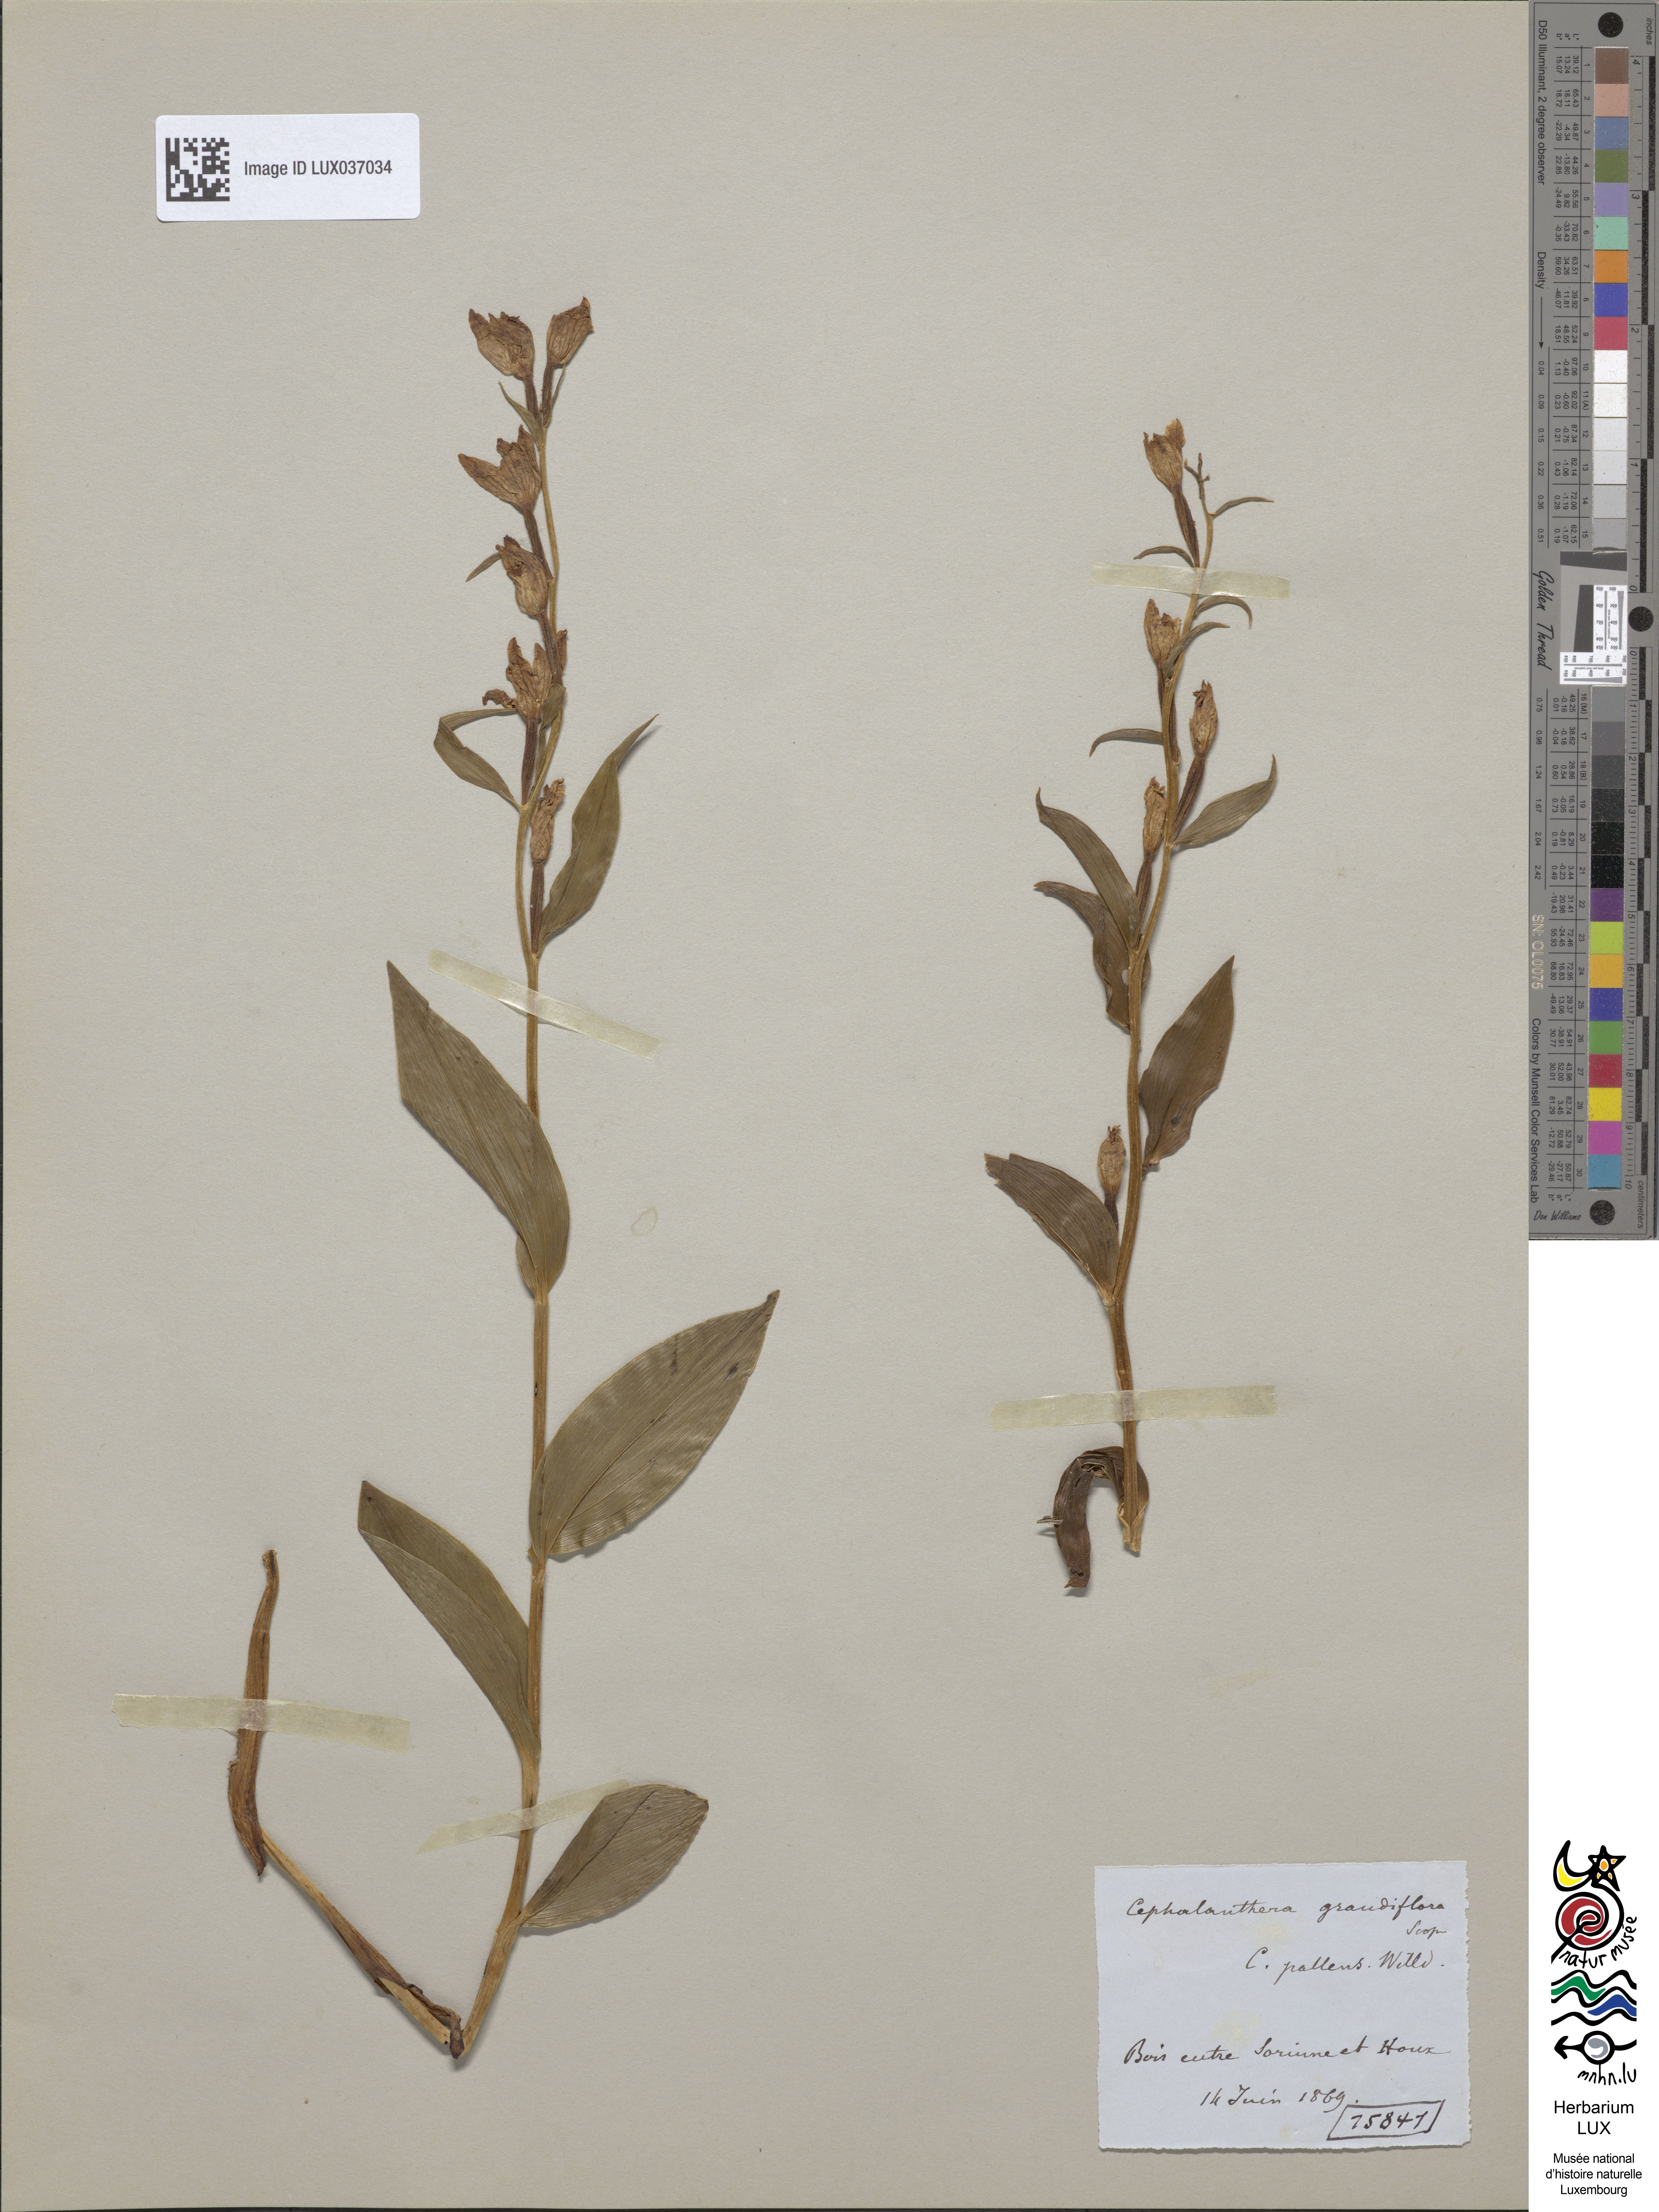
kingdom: Plantae
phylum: Tracheophyta
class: Liliopsida
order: Asparagales
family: Orchidaceae
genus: Cephalanthera
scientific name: Cephalanthera damasonium
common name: White helleborine
